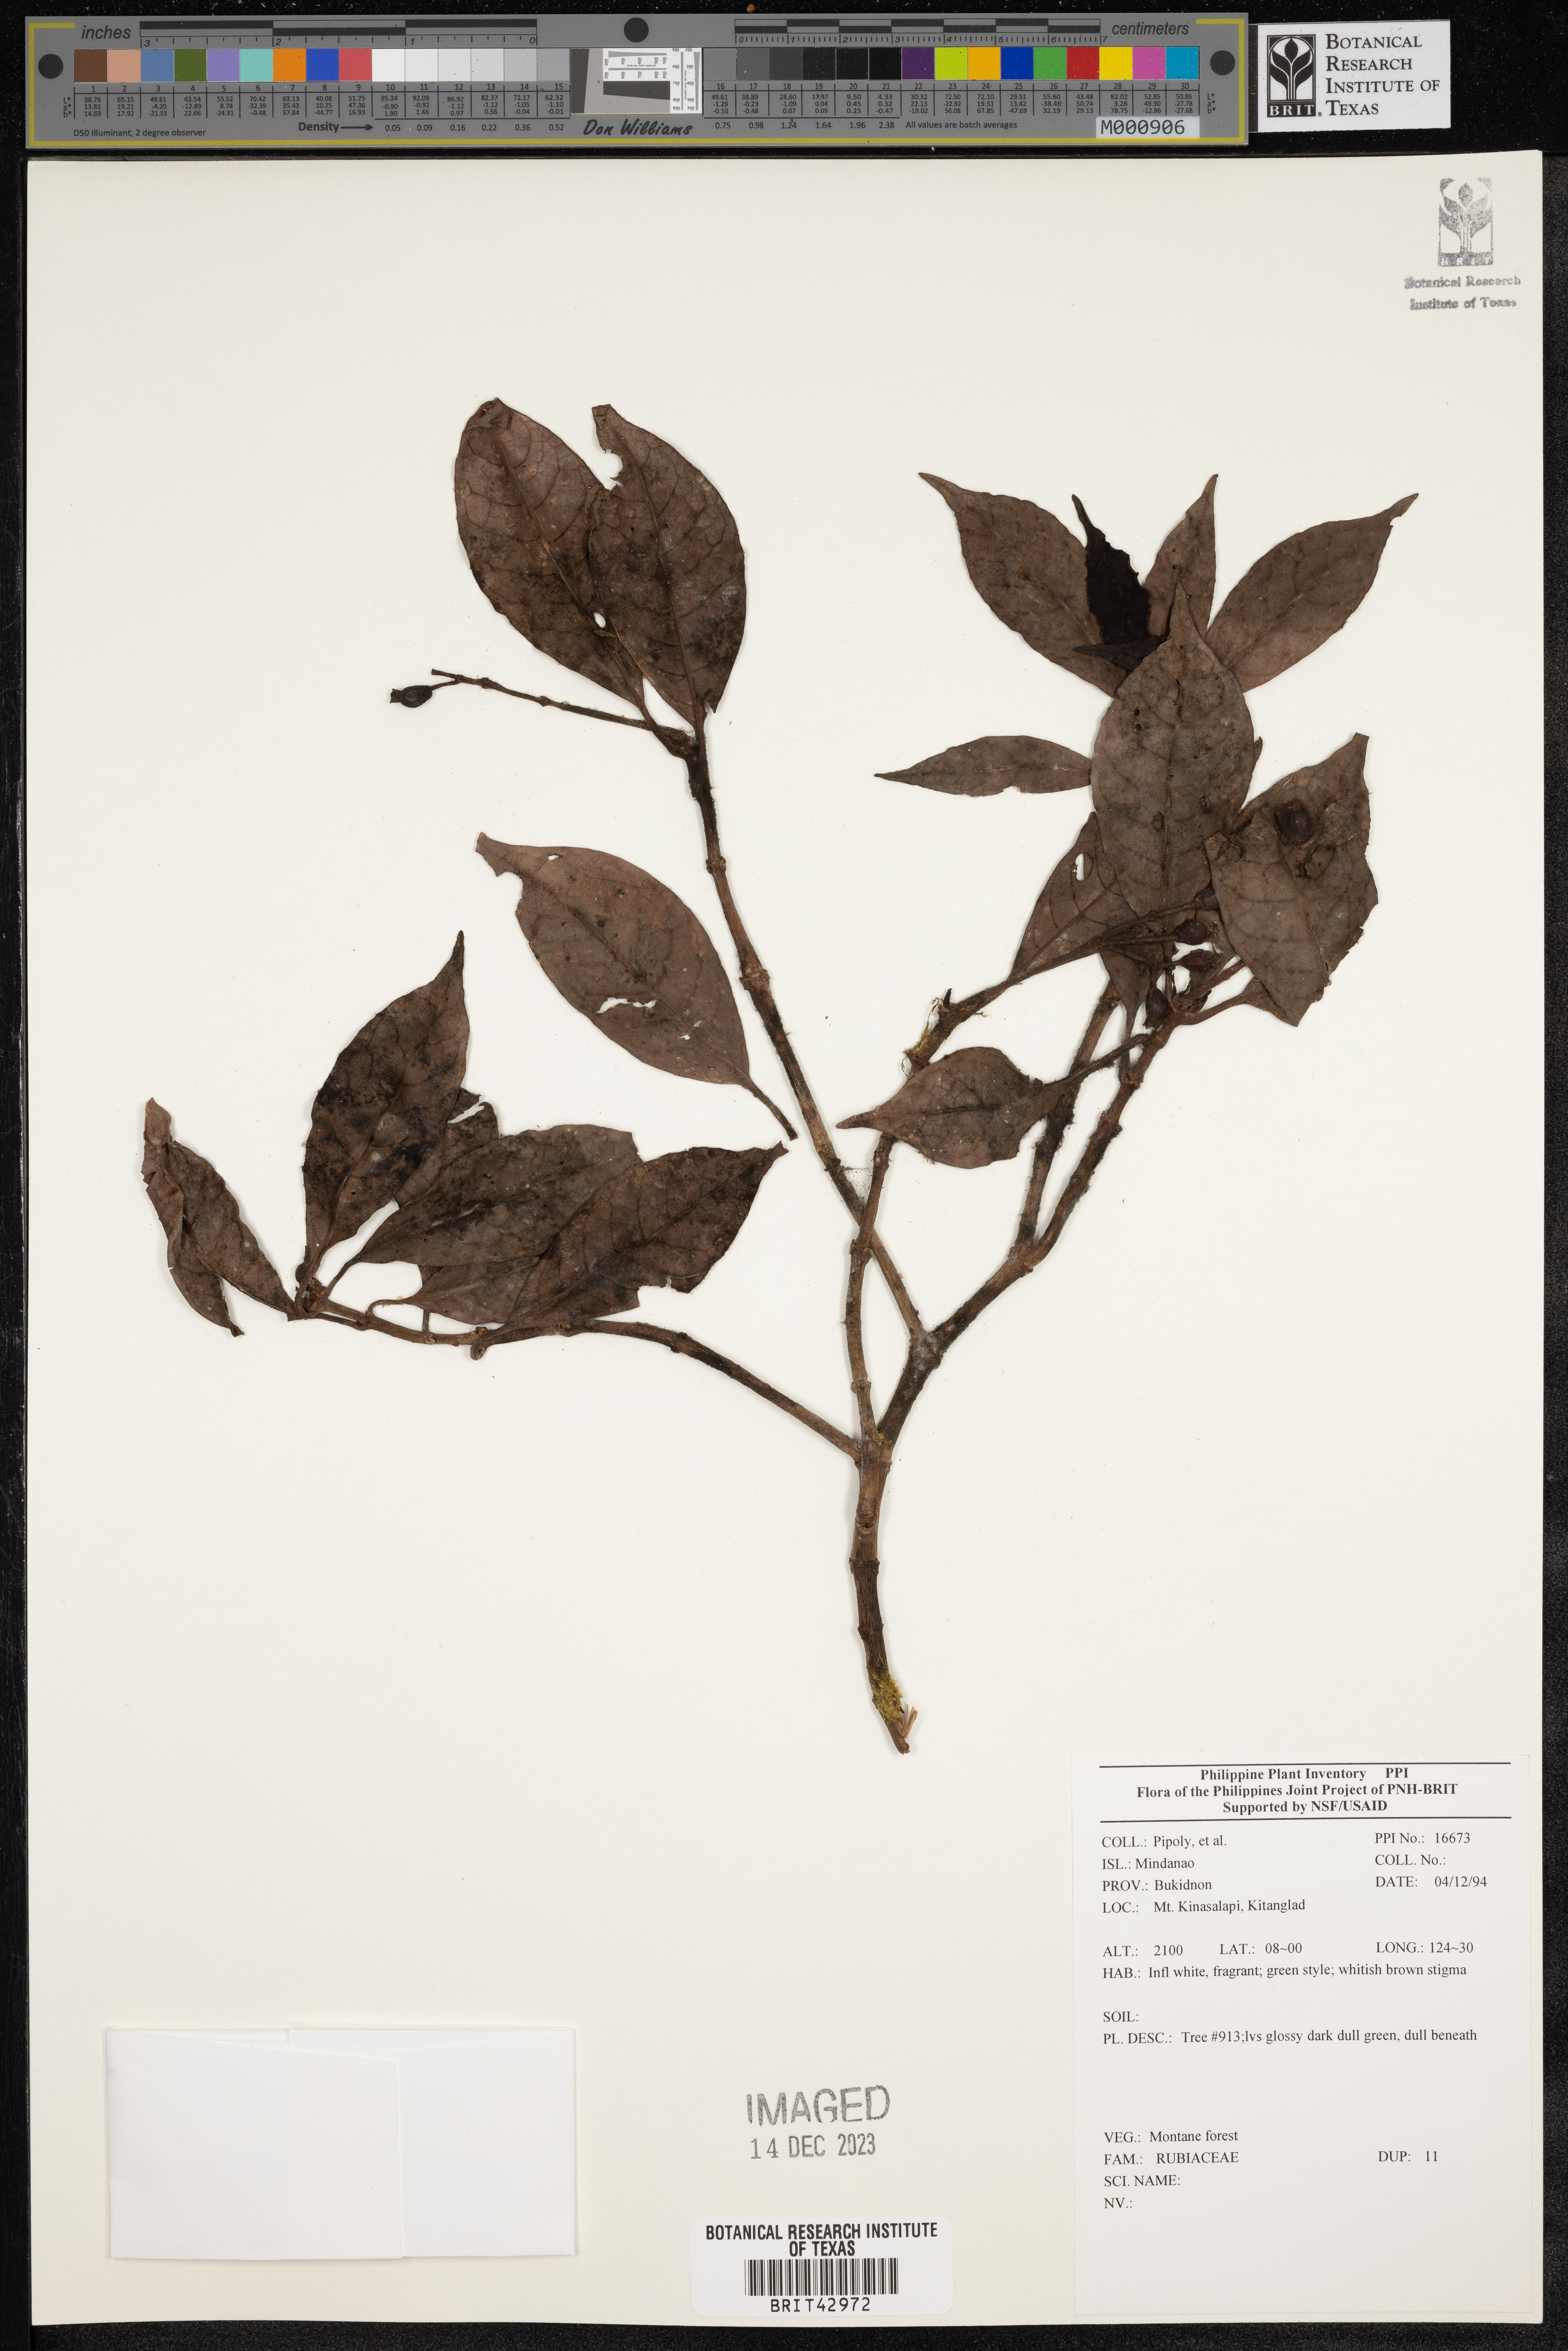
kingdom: Plantae
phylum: Tracheophyta
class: Magnoliopsida
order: Gentianales
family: Rubiaceae
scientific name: Rubiaceae
